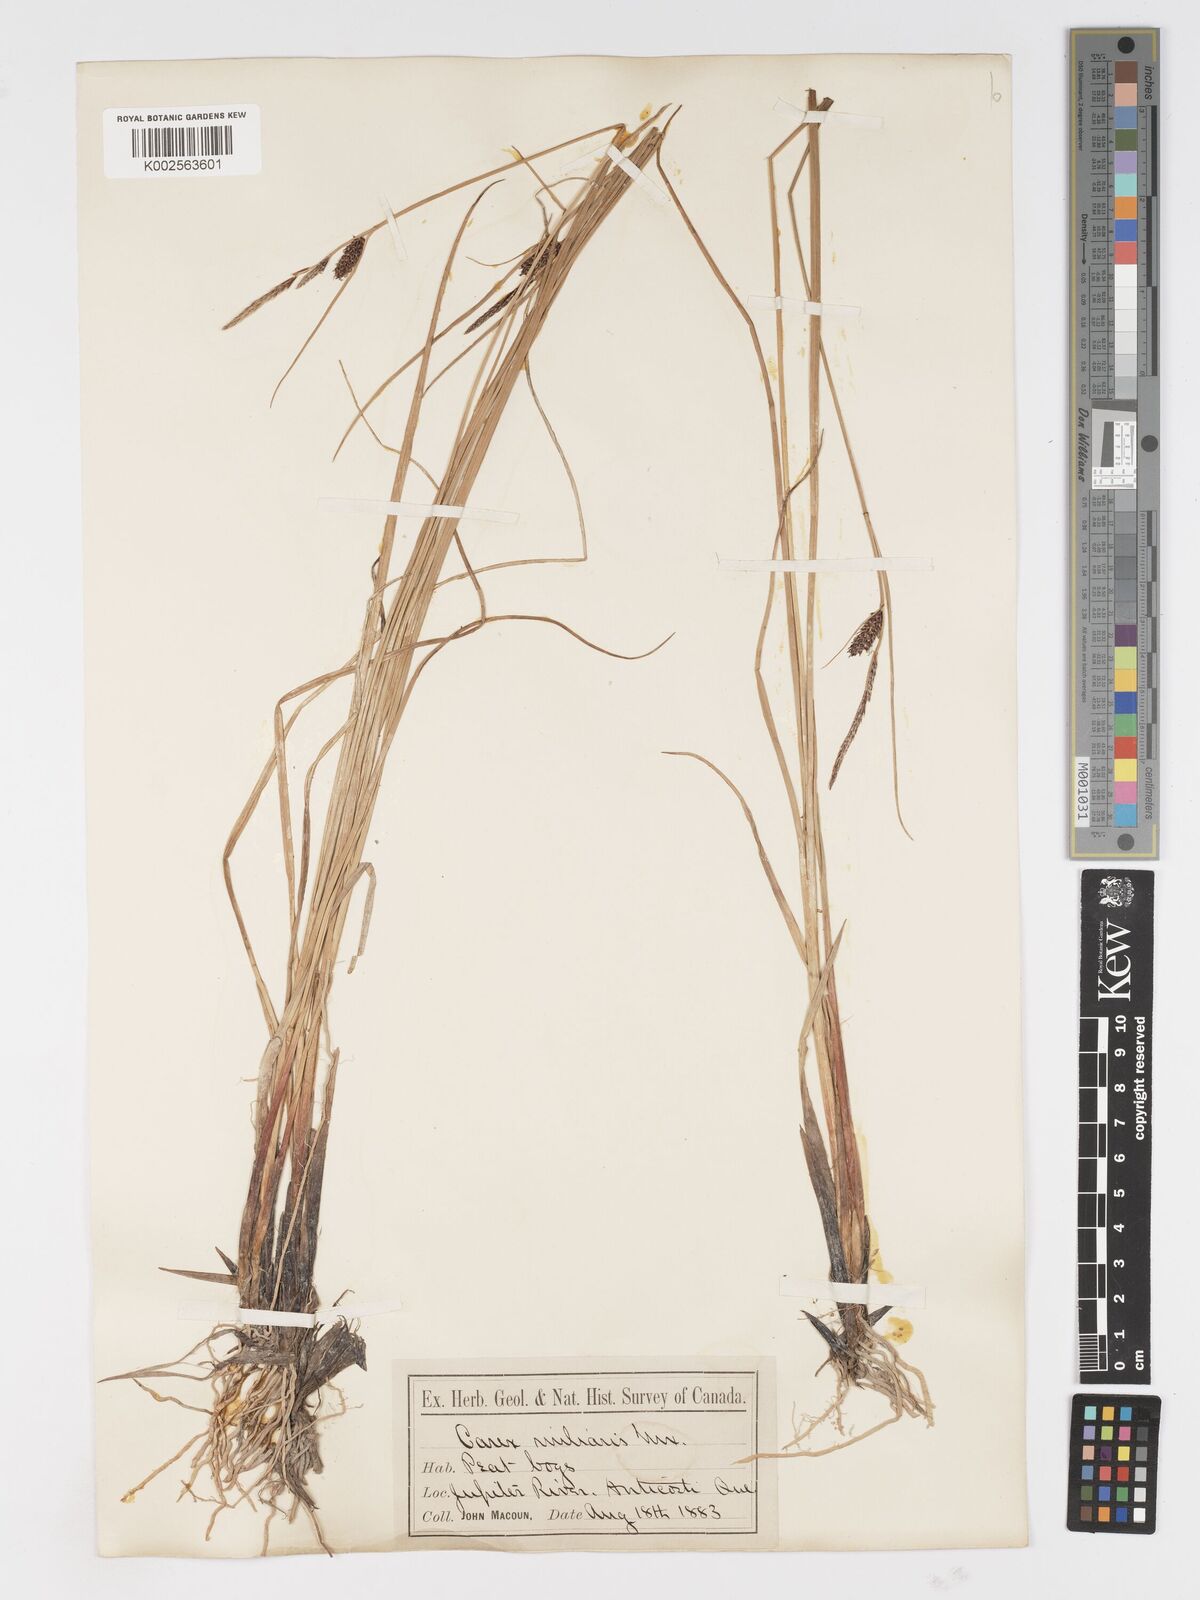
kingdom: Plantae
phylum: Tracheophyta
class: Liliopsida
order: Poales
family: Cyperaceae
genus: Carex
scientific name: Carex miliaris
